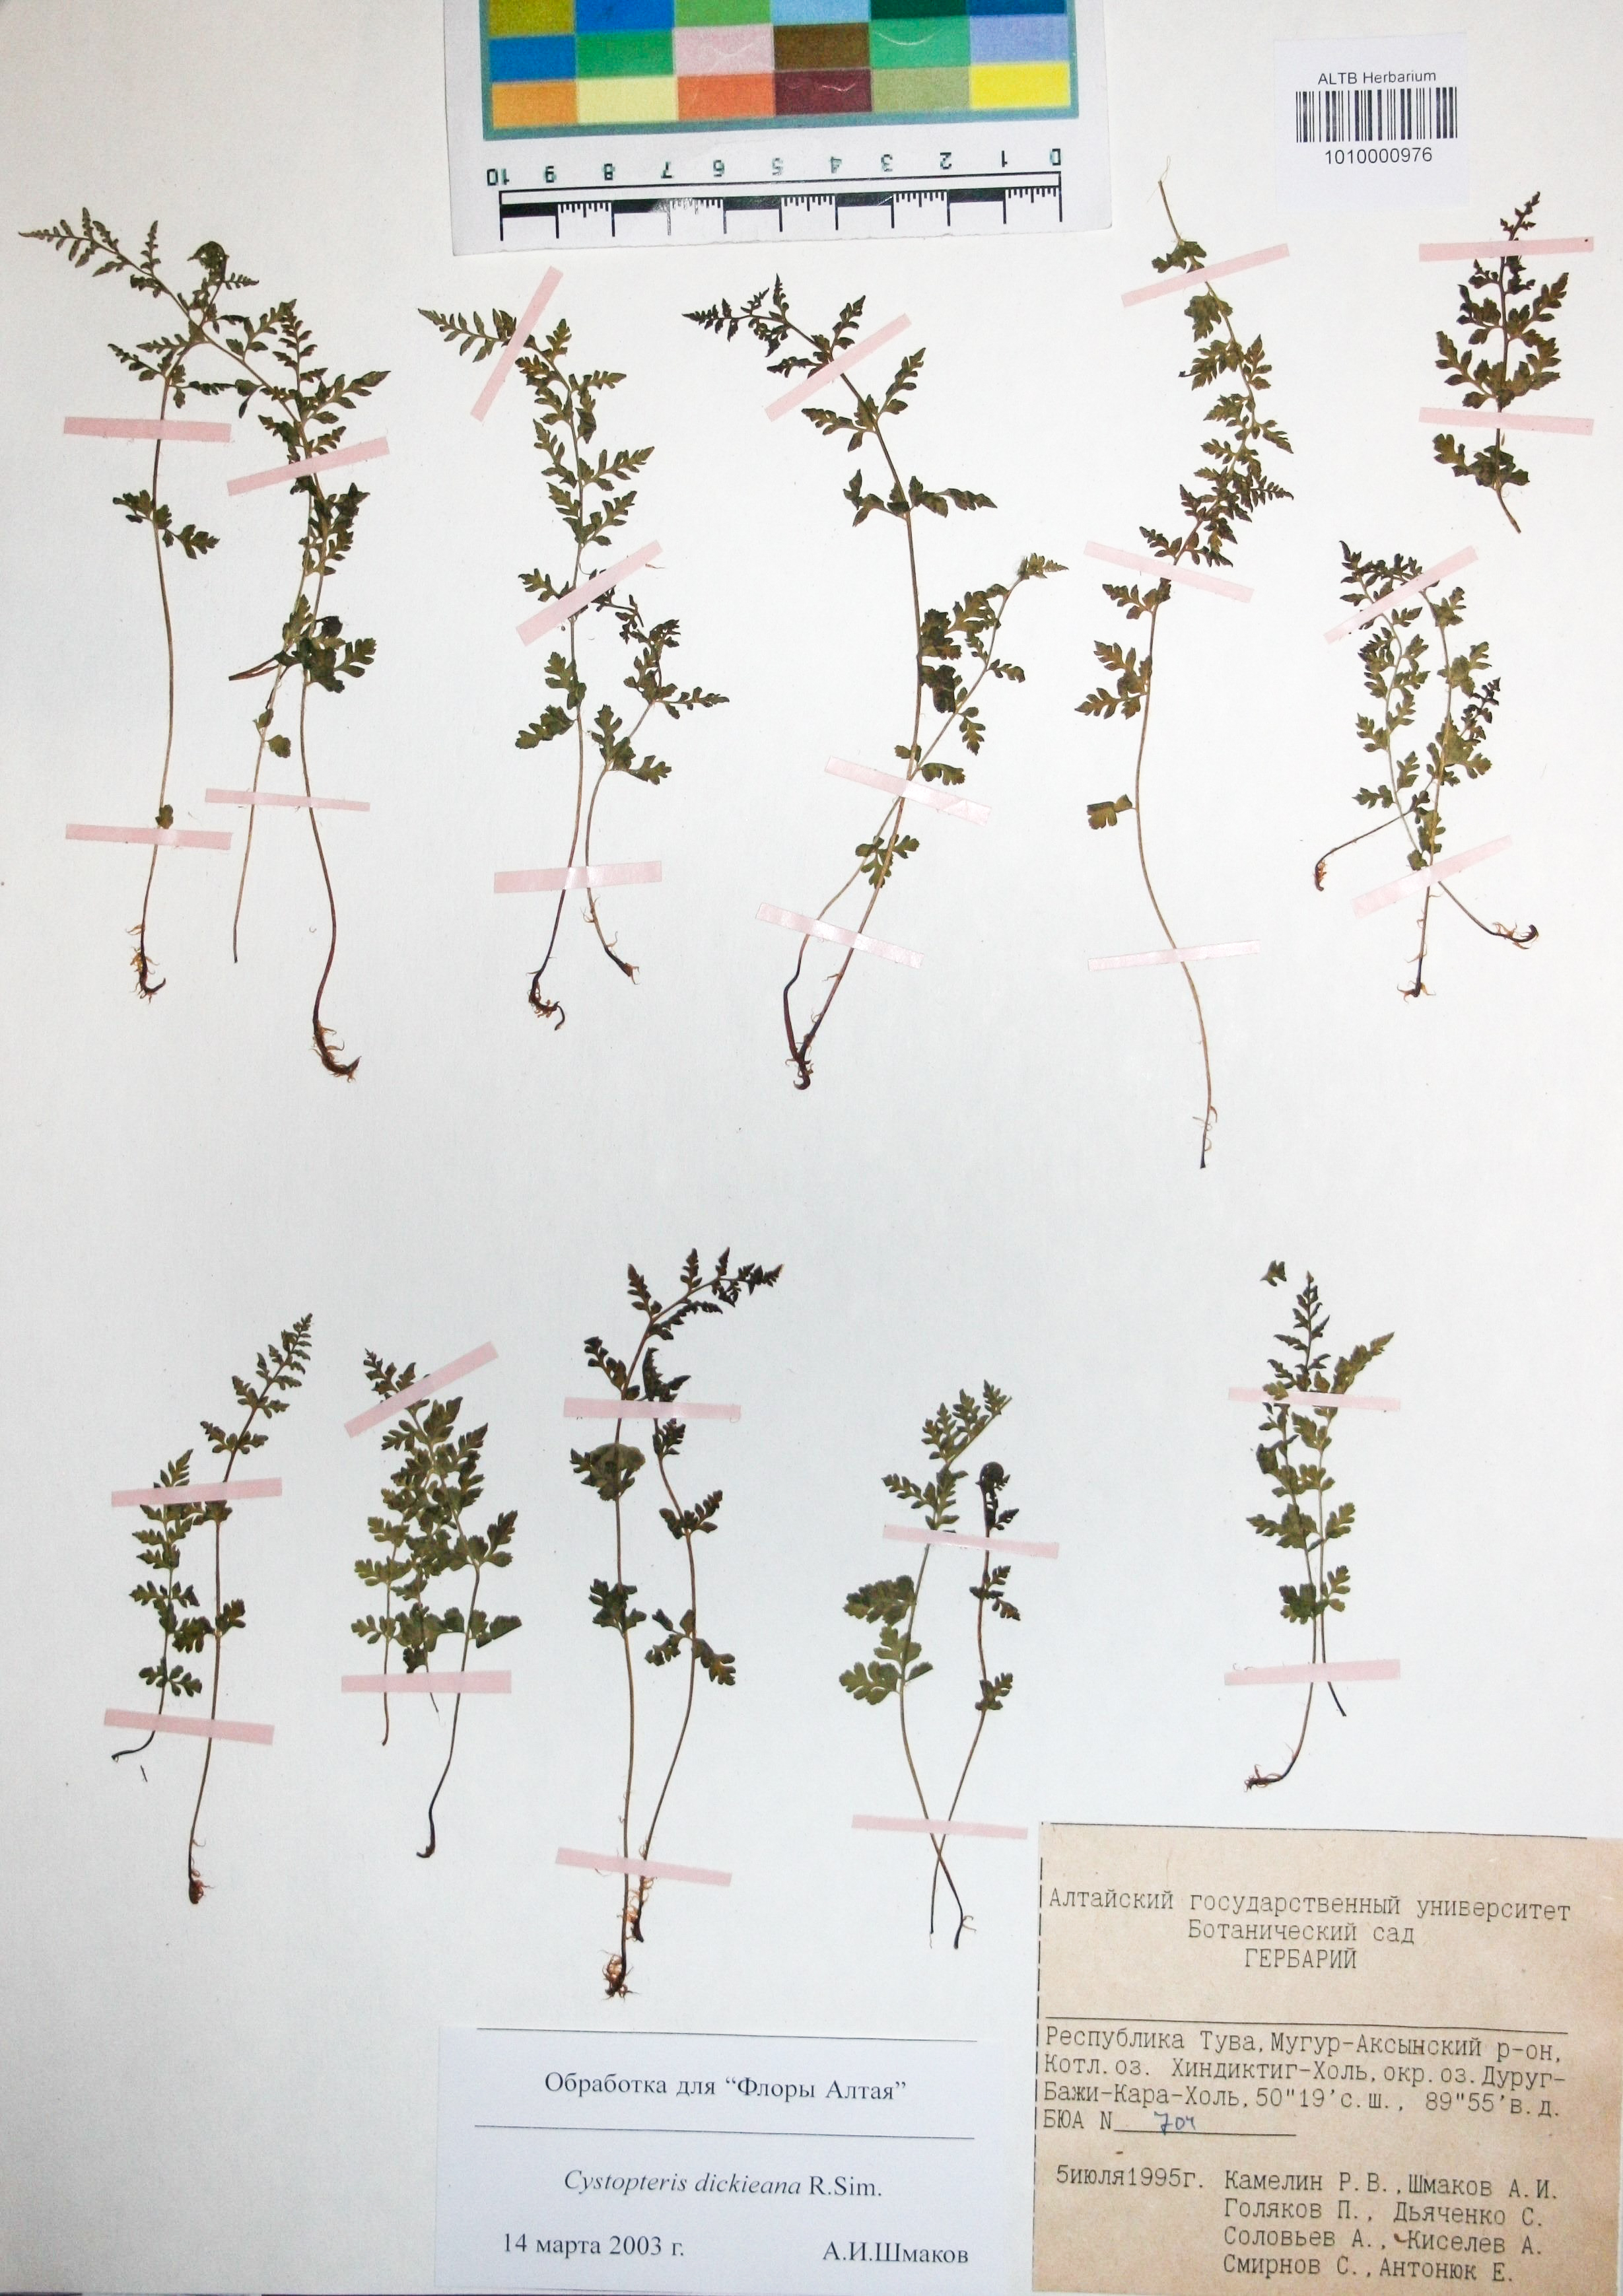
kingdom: Plantae
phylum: Tracheophyta
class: Polypodiopsida
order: Polypodiales
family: Cystopteridaceae
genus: Cystopteris
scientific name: Cystopteris dickieana
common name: Dickie's bladder-fern
